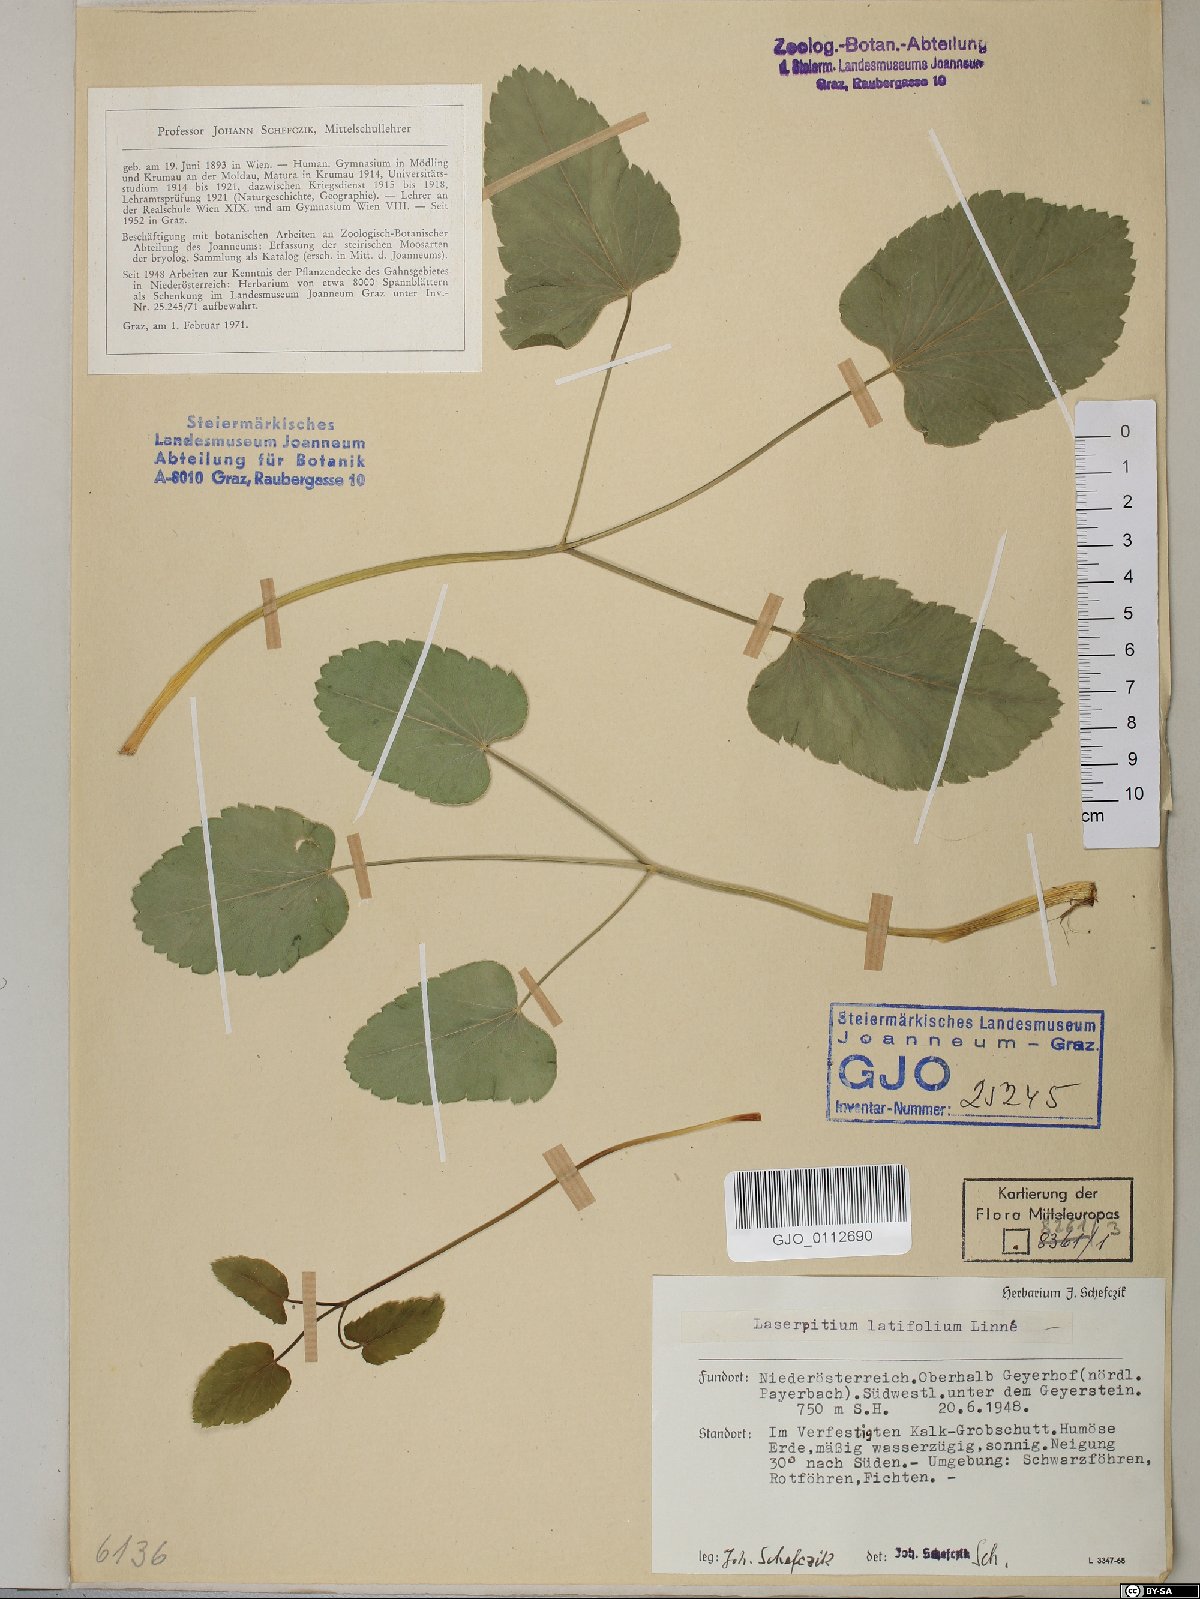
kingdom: Plantae
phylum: Tracheophyta
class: Magnoliopsida
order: Apiales
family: Apiaceae
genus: Laserpitium
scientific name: Laserpitium latifolium
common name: Broadleaf sermountain
